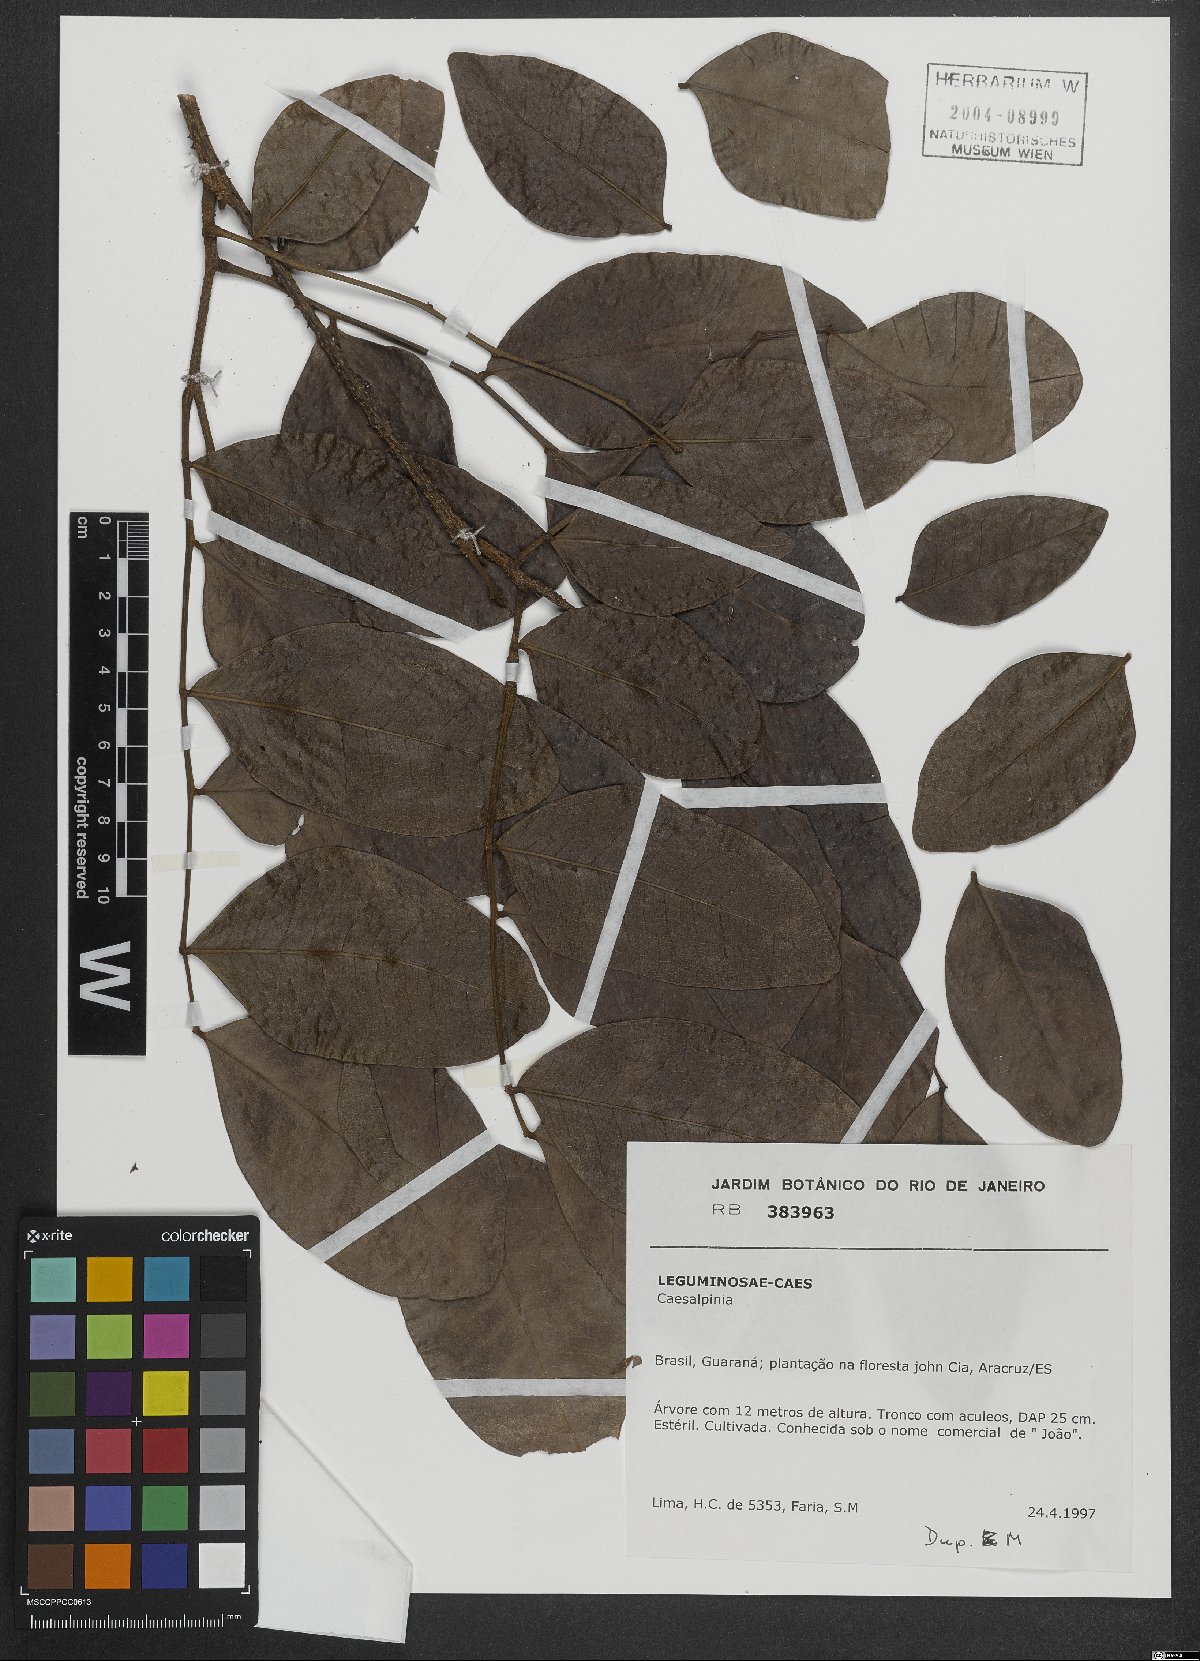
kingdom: Plantae
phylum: Tracheophyta
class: Magnoliopsida
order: Fabales
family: Fabaceae
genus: Caesalpinia
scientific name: Caesalpinia
